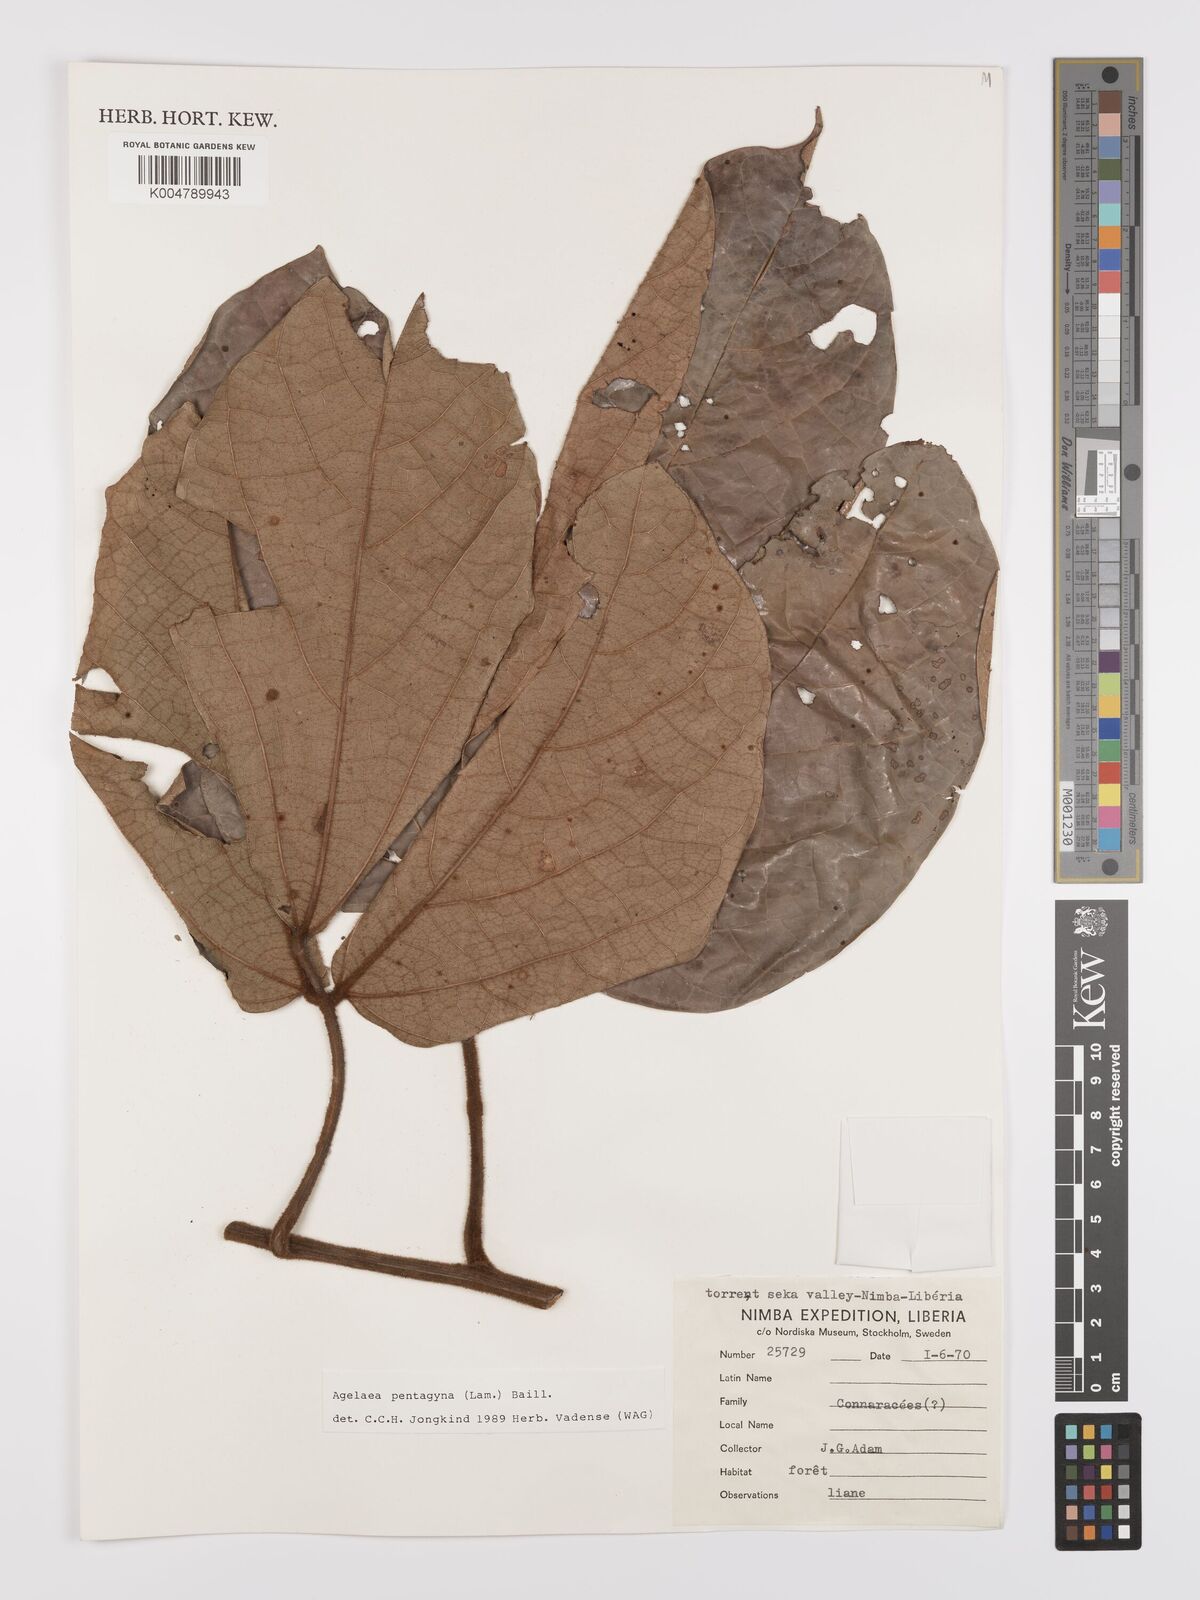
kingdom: Plantae
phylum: Tracheophyta
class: Magnoliopsida
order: Oxalidales
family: Connaraceae
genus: Agelaea
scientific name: Agelaea pentagyna
